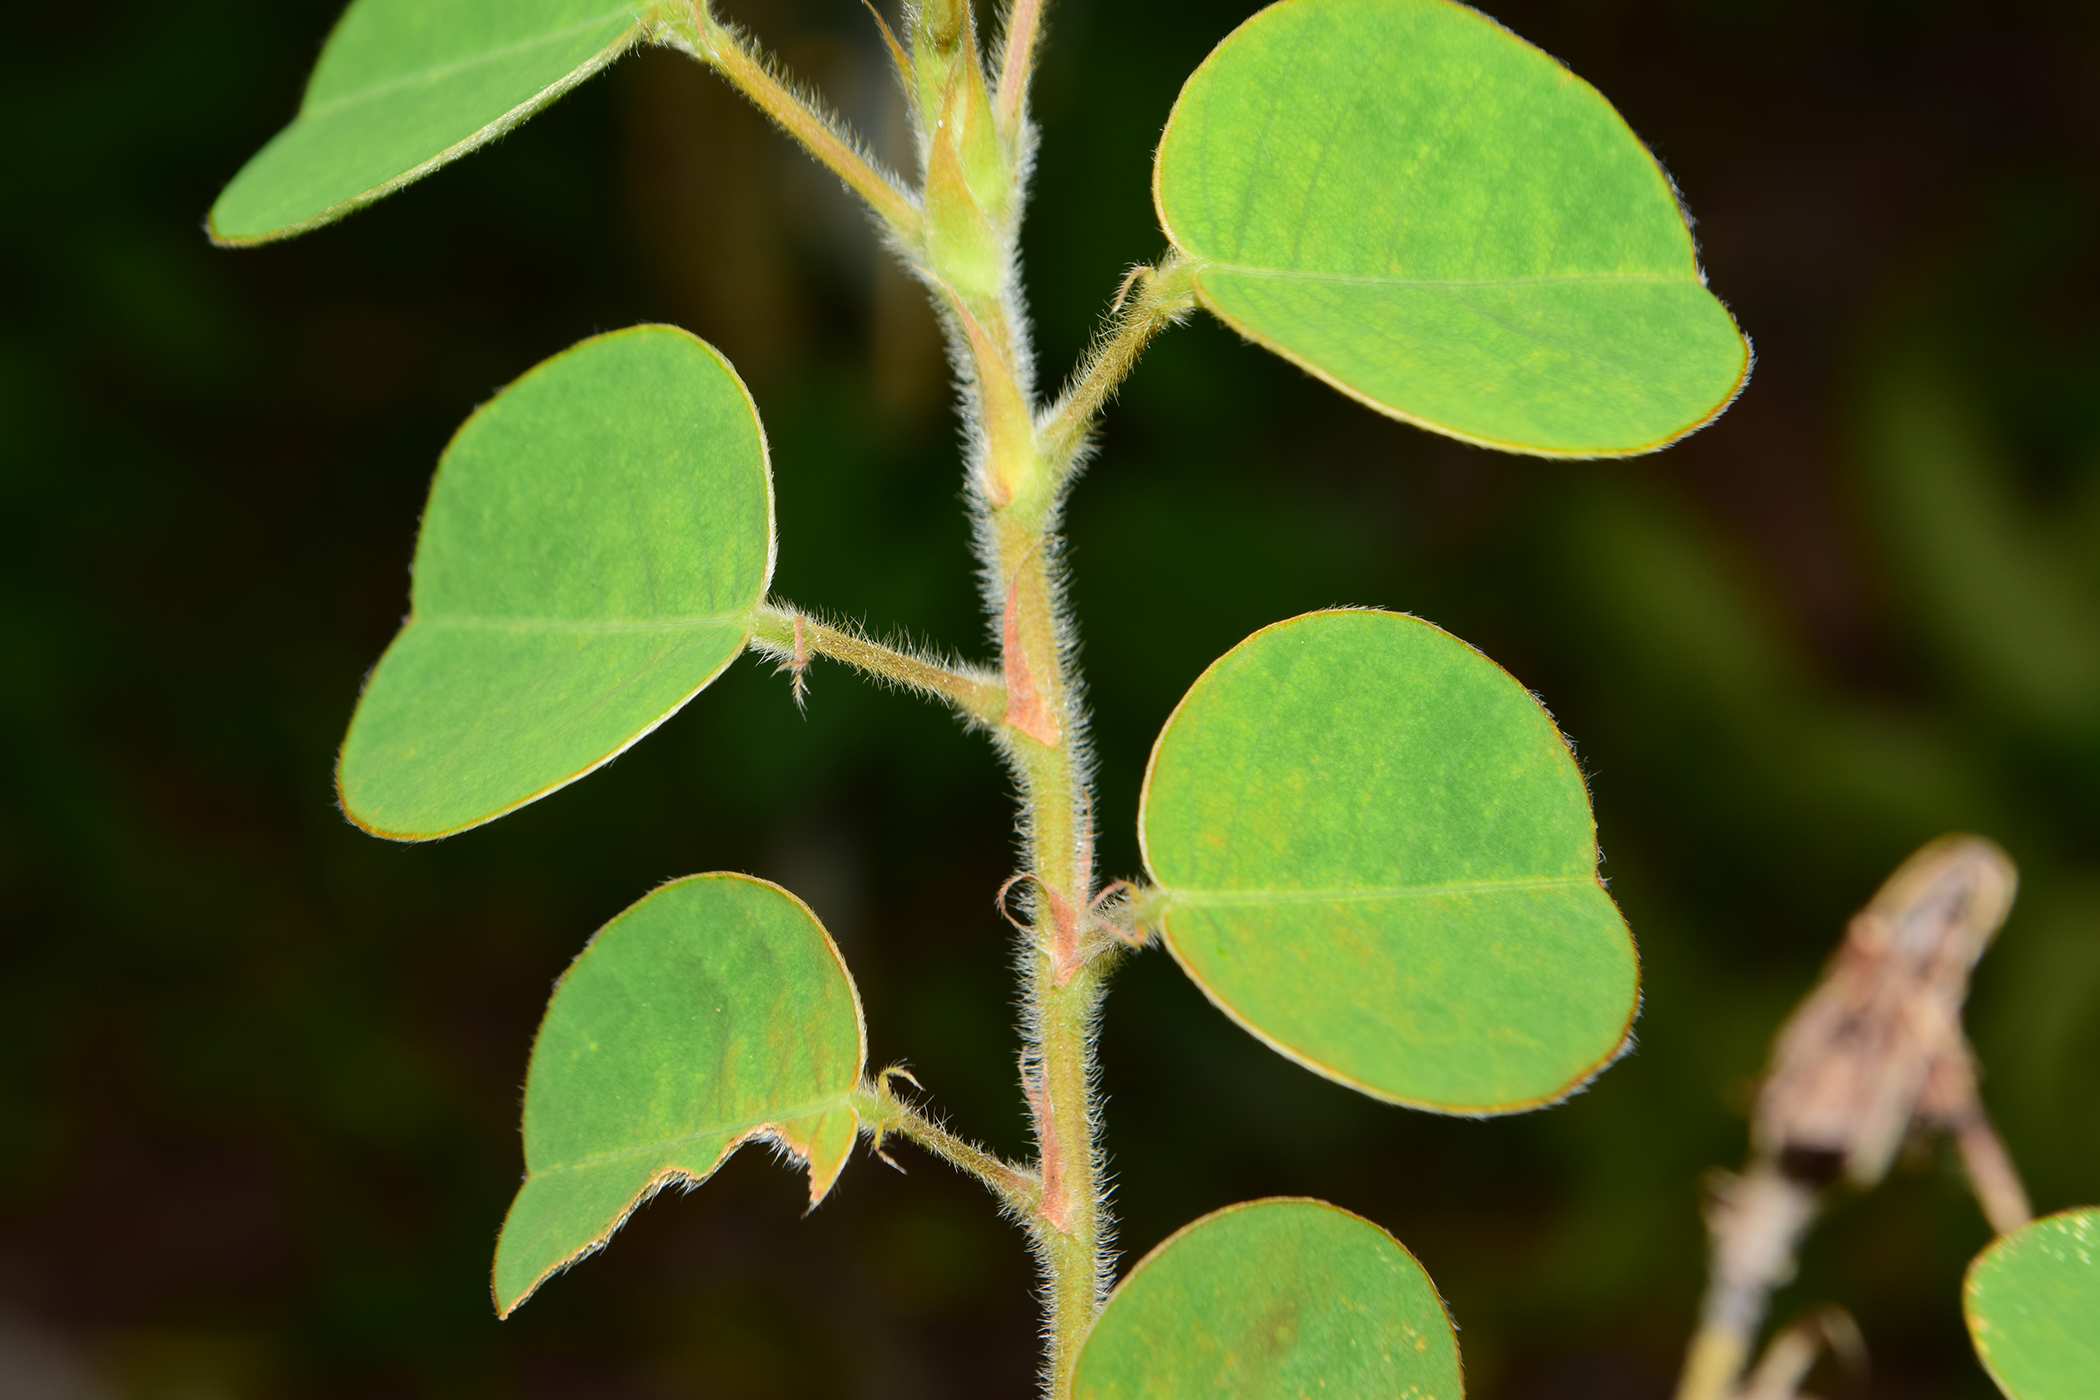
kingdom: Plantae
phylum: Tracheophyta
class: Magnoliopsida
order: Fabales
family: Fabaceae
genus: Grona
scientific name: Grona styracifolia
